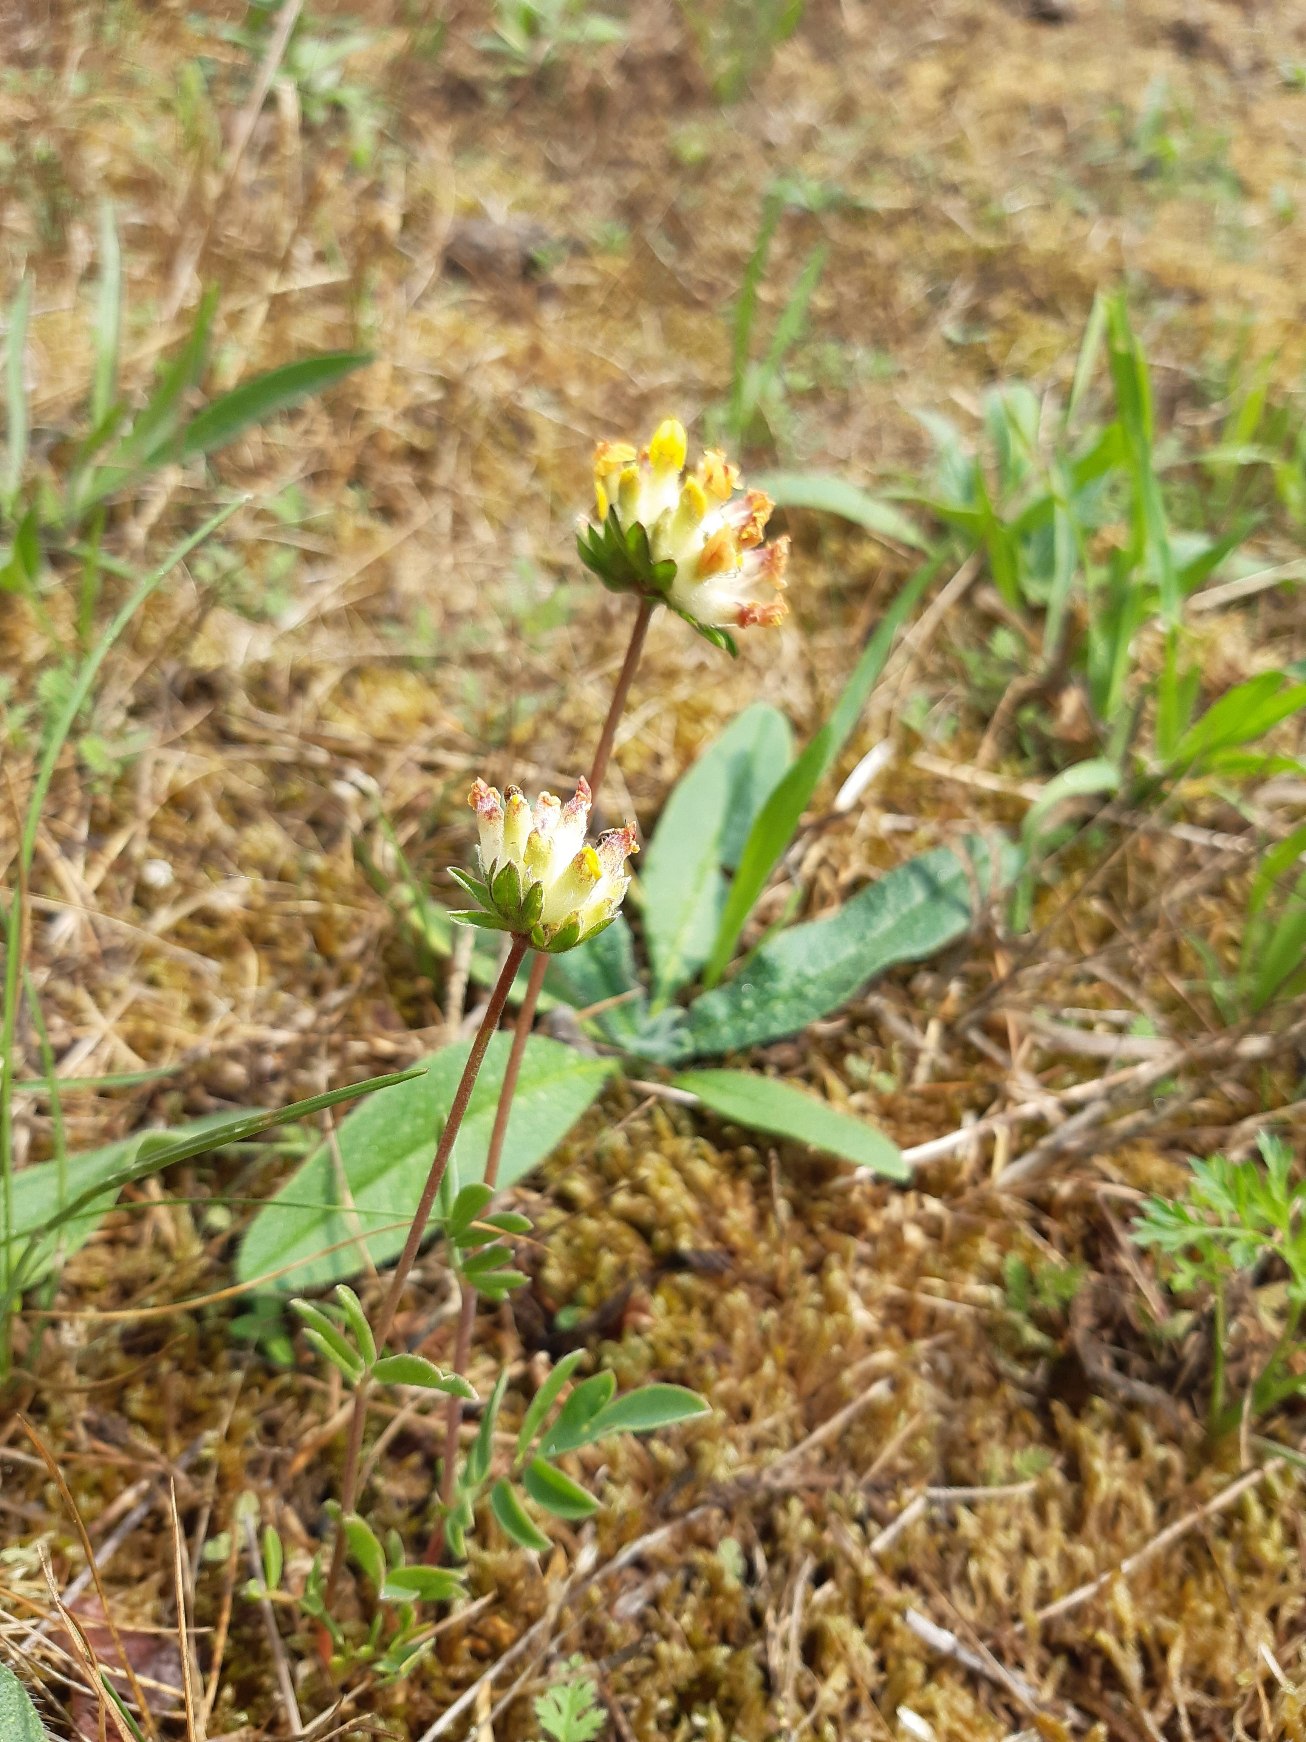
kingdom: Plantae
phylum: Tracheophyta
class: Magnoliopsida
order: Fabales
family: Fabaceae
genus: Anthyllis
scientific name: Anthyllis vulneraria
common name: Rundbælg
